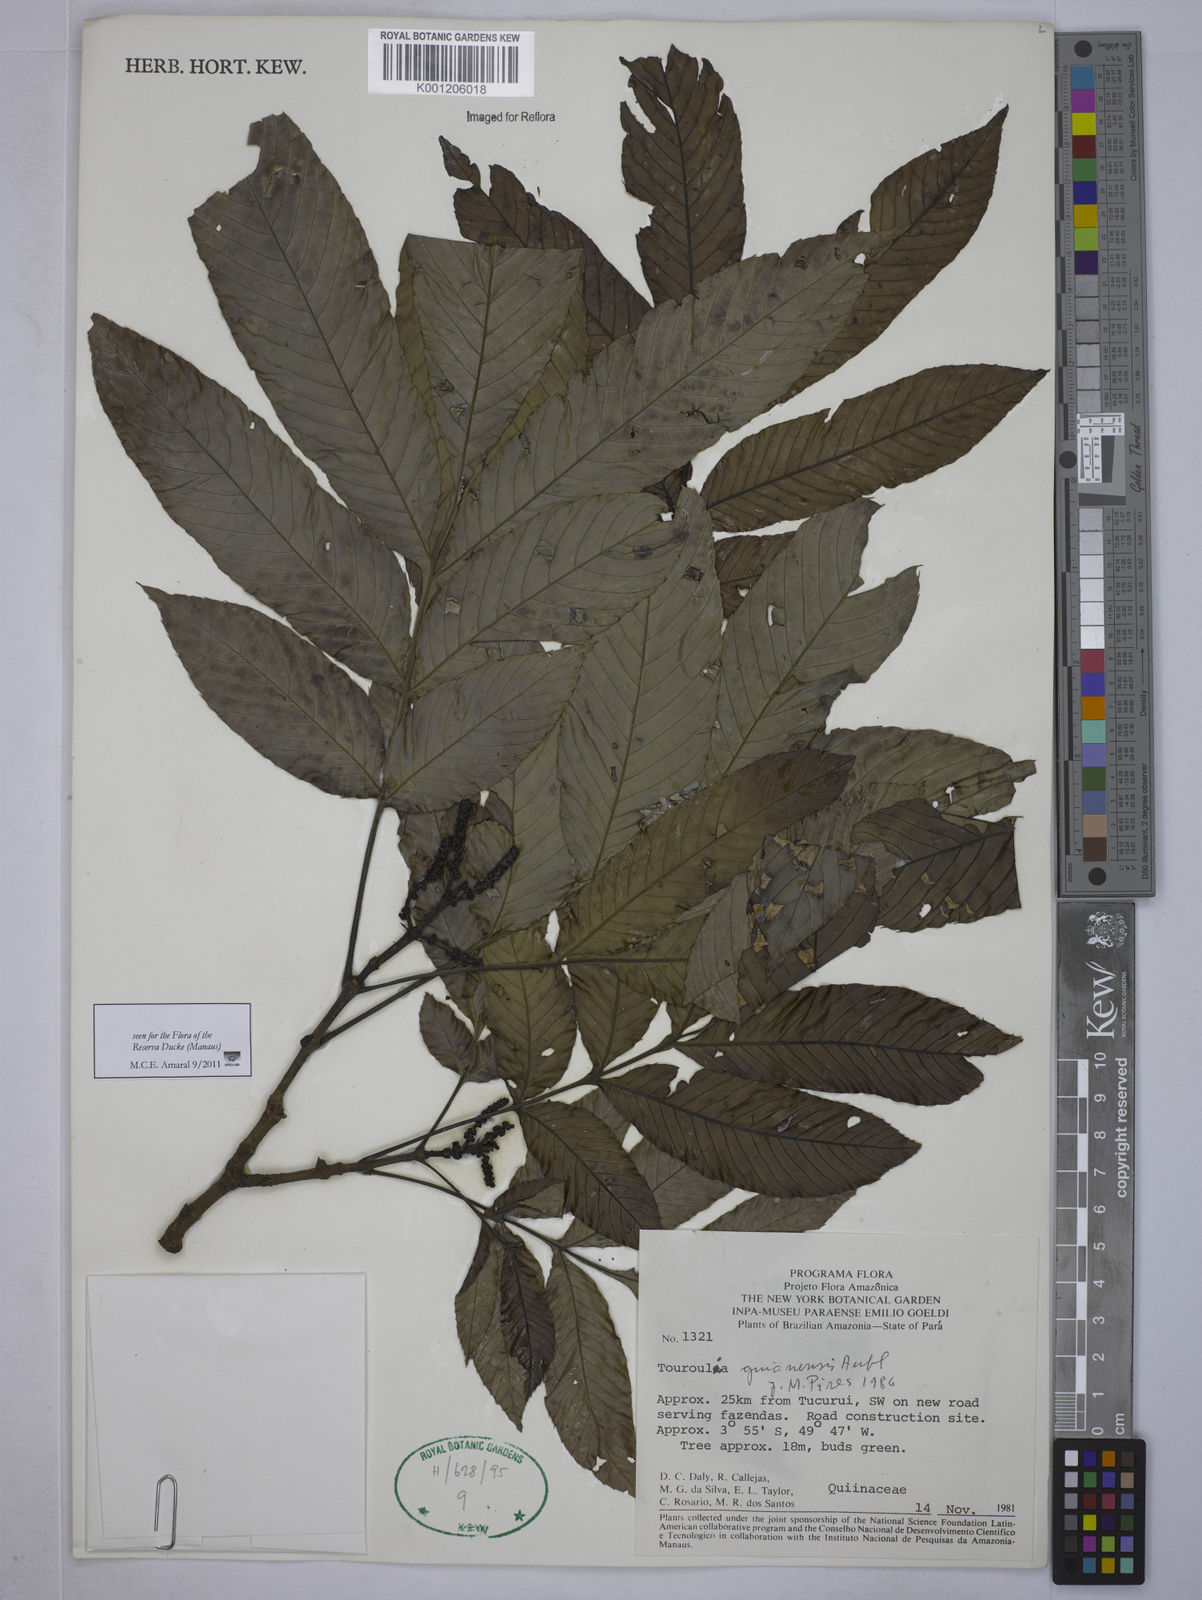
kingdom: Plantae
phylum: Tracheophyta
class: Magnoliopsida
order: Malpighiales
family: Quiinaceae
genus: Touroulia
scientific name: Touroulia guianensis
